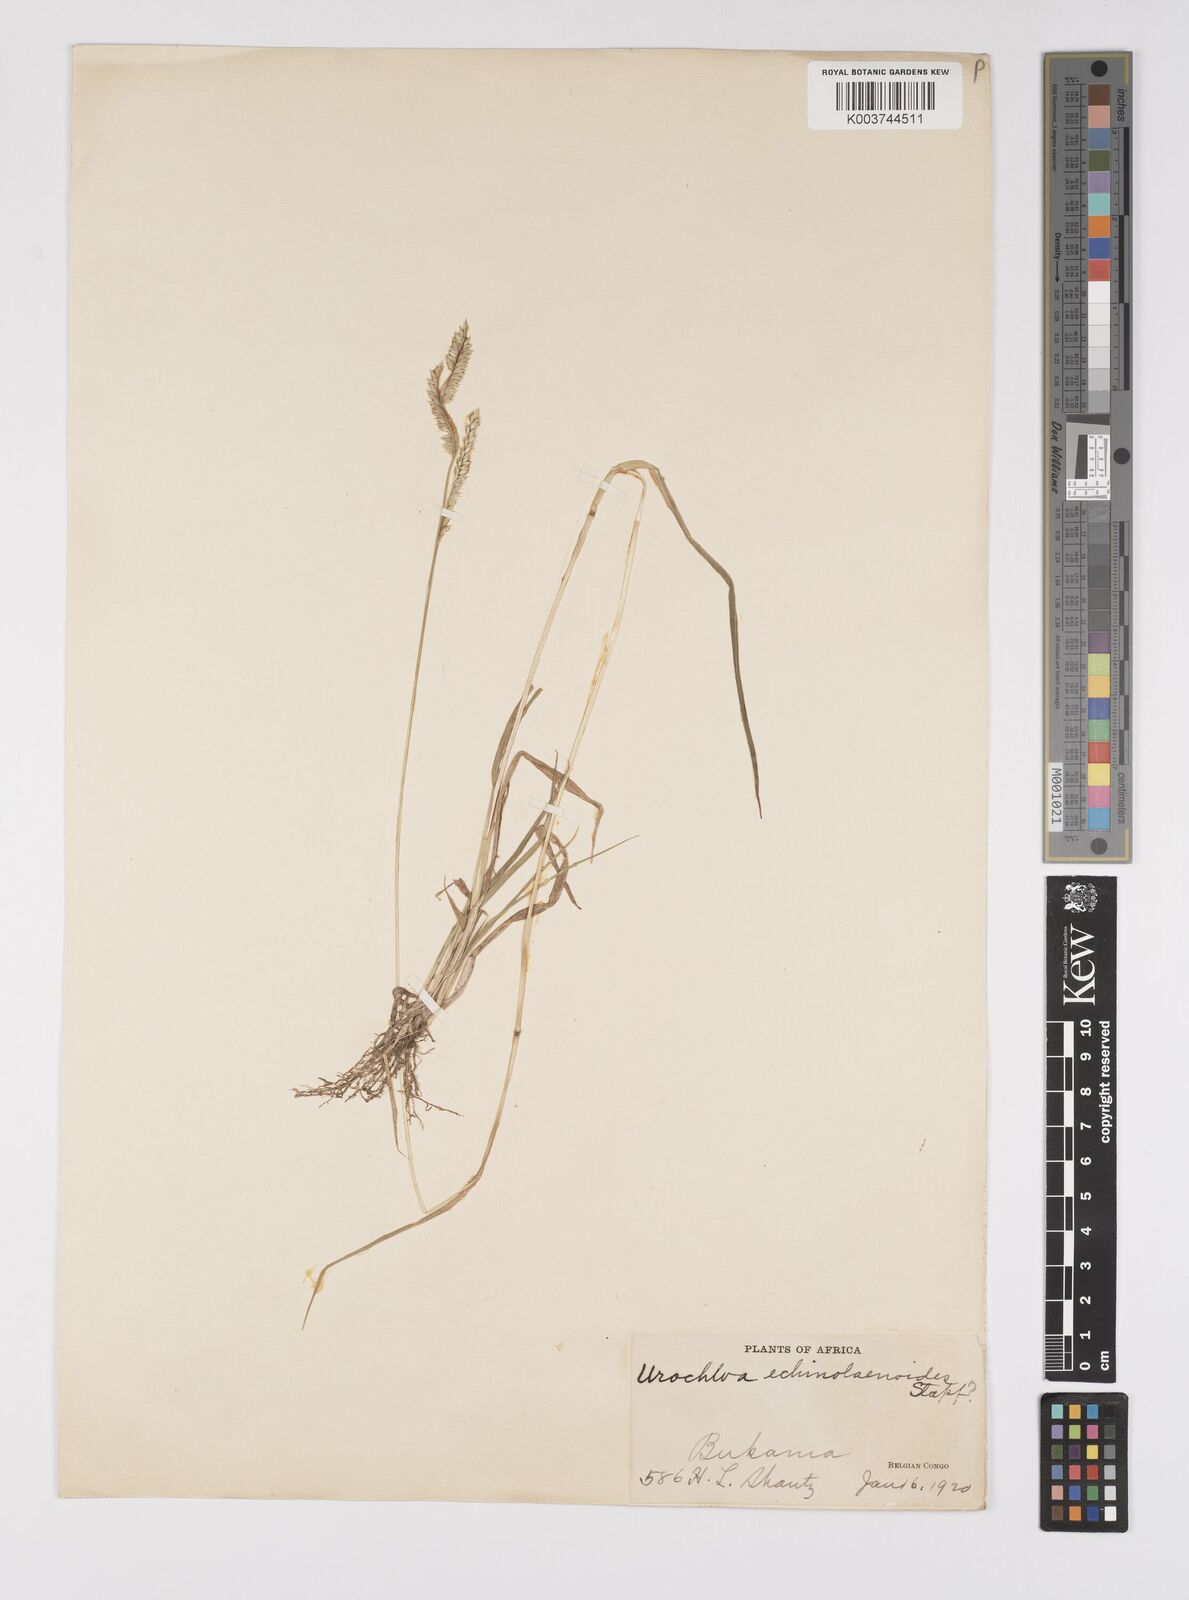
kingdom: Plantae
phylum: Tracheophyta
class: Liliopsida
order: Poales
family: Poaceae
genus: Urochloa
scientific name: Urochloa echinolaenoides
